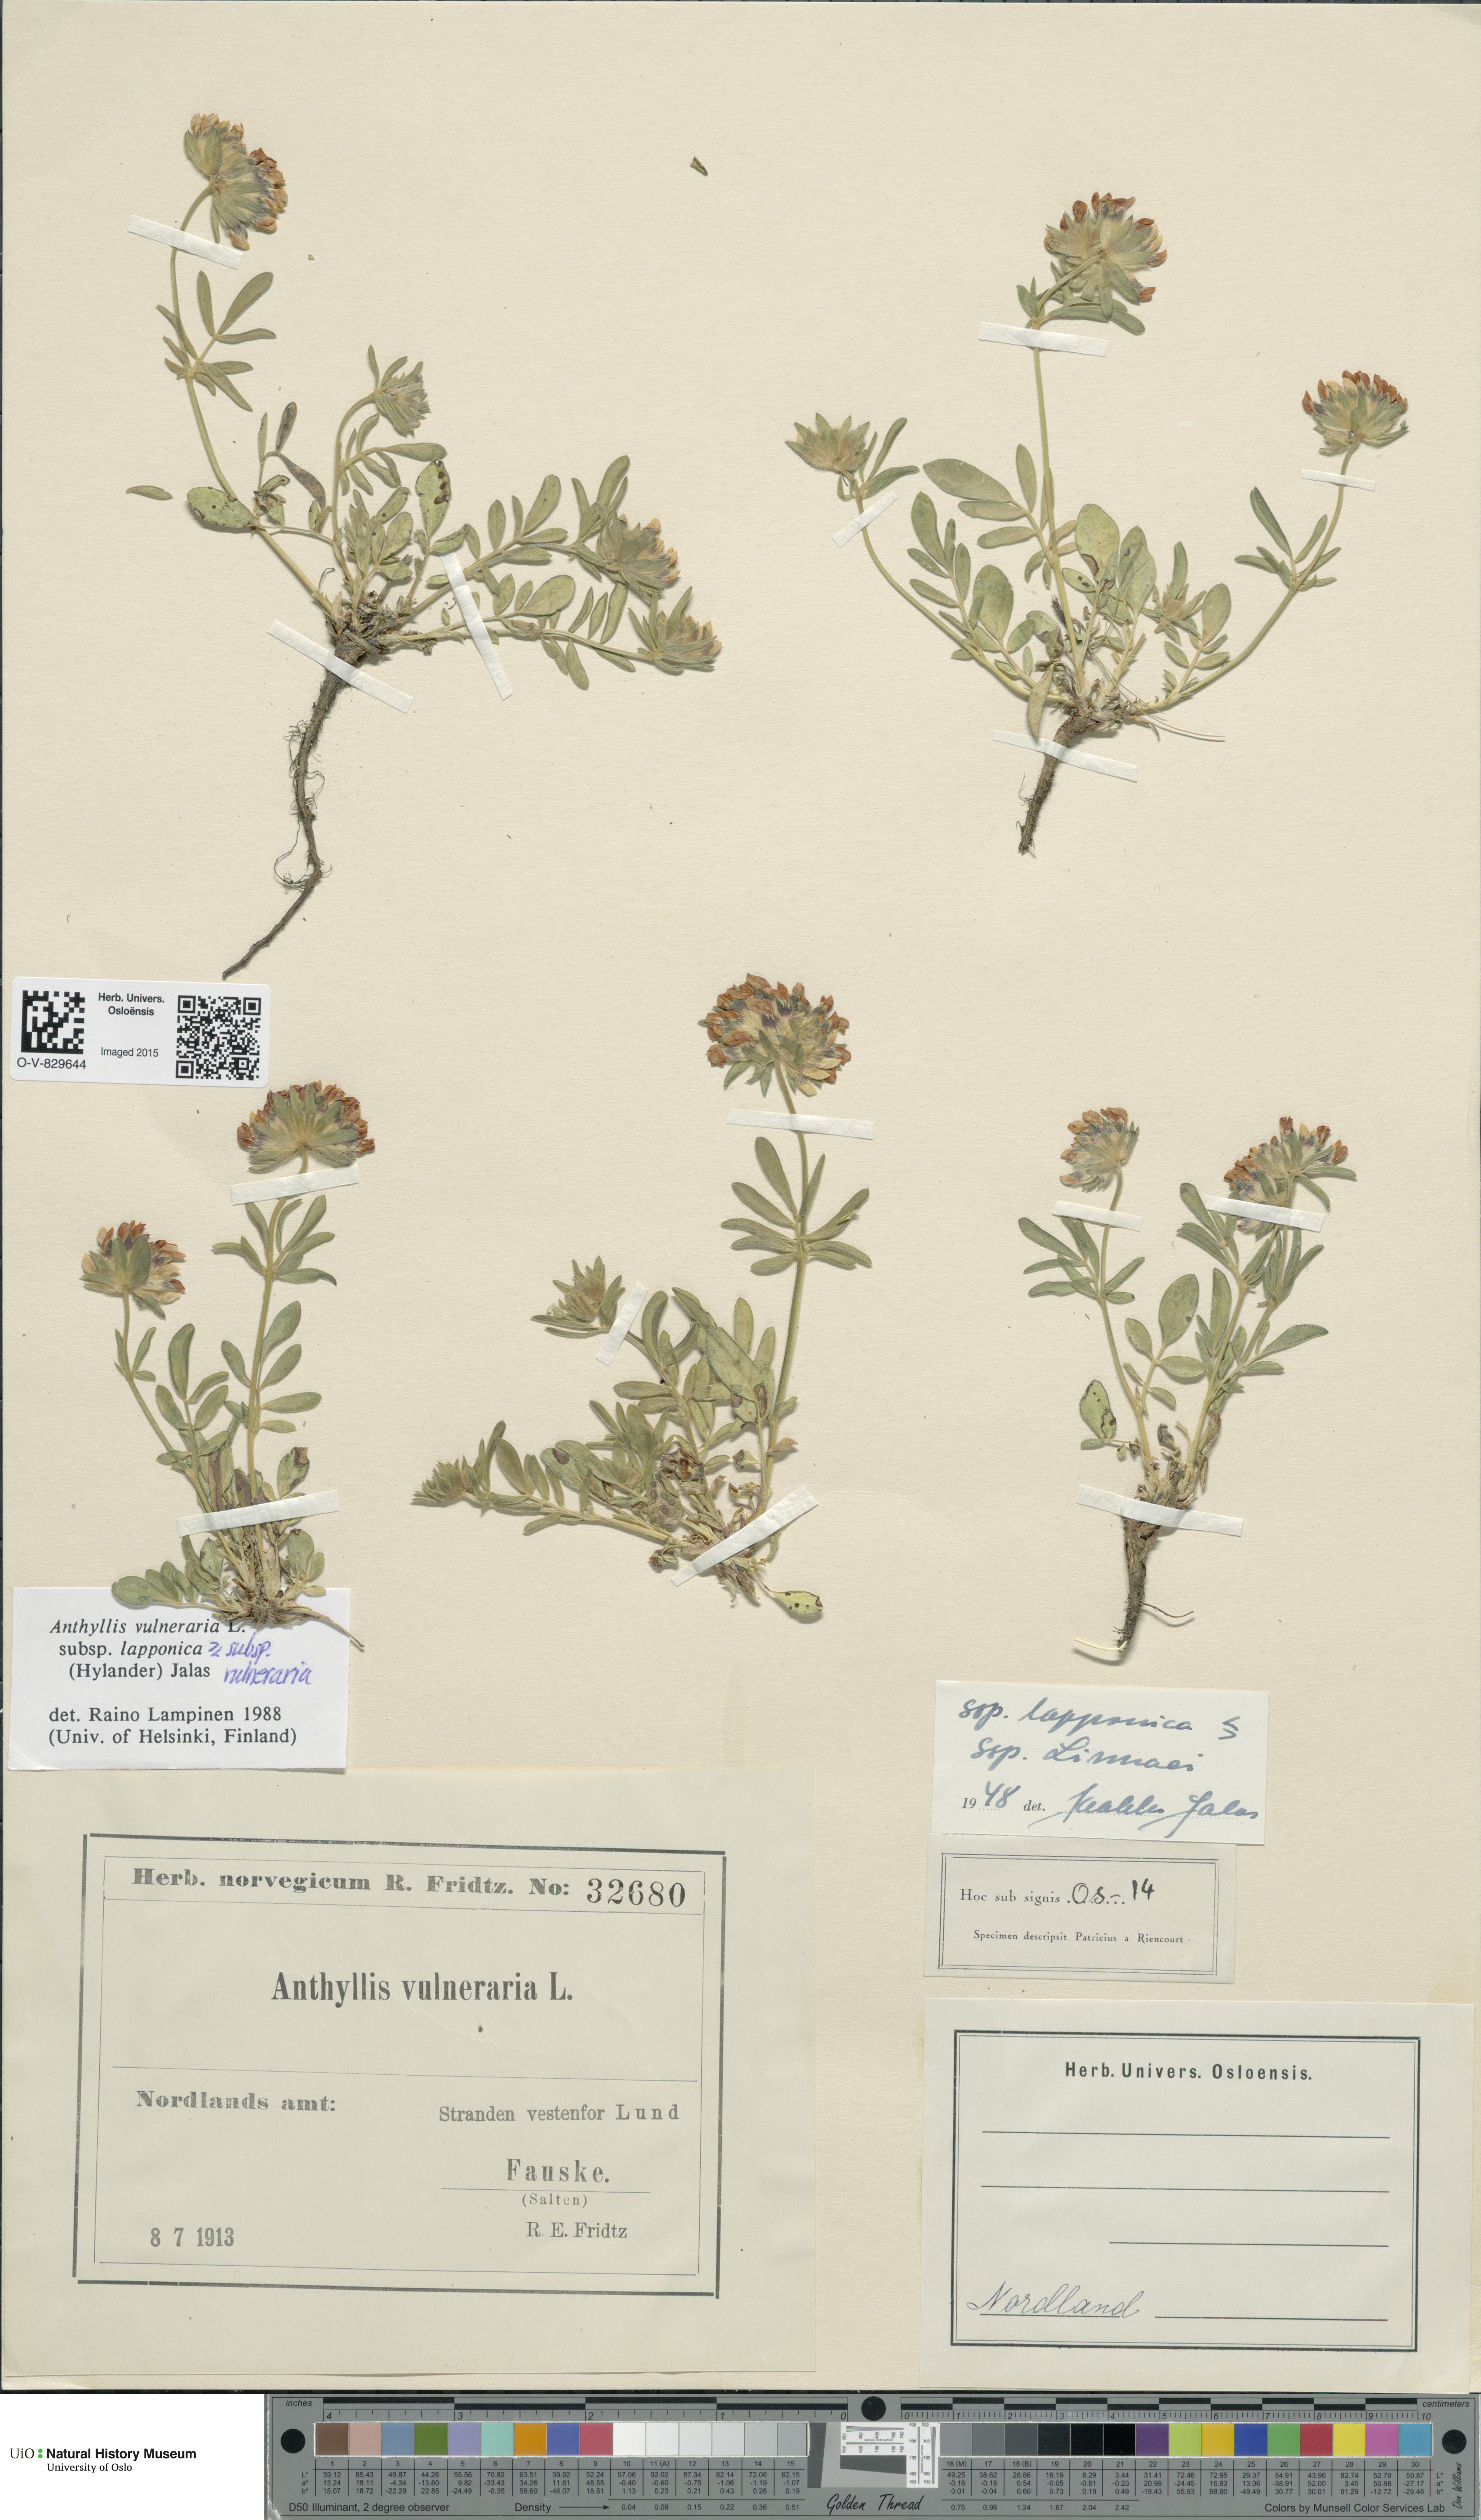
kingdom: Plantae
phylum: Tracheophyta
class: Magnoliopsida
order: Fabales
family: Fabaceae
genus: Anthyllis
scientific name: Anthyllis
